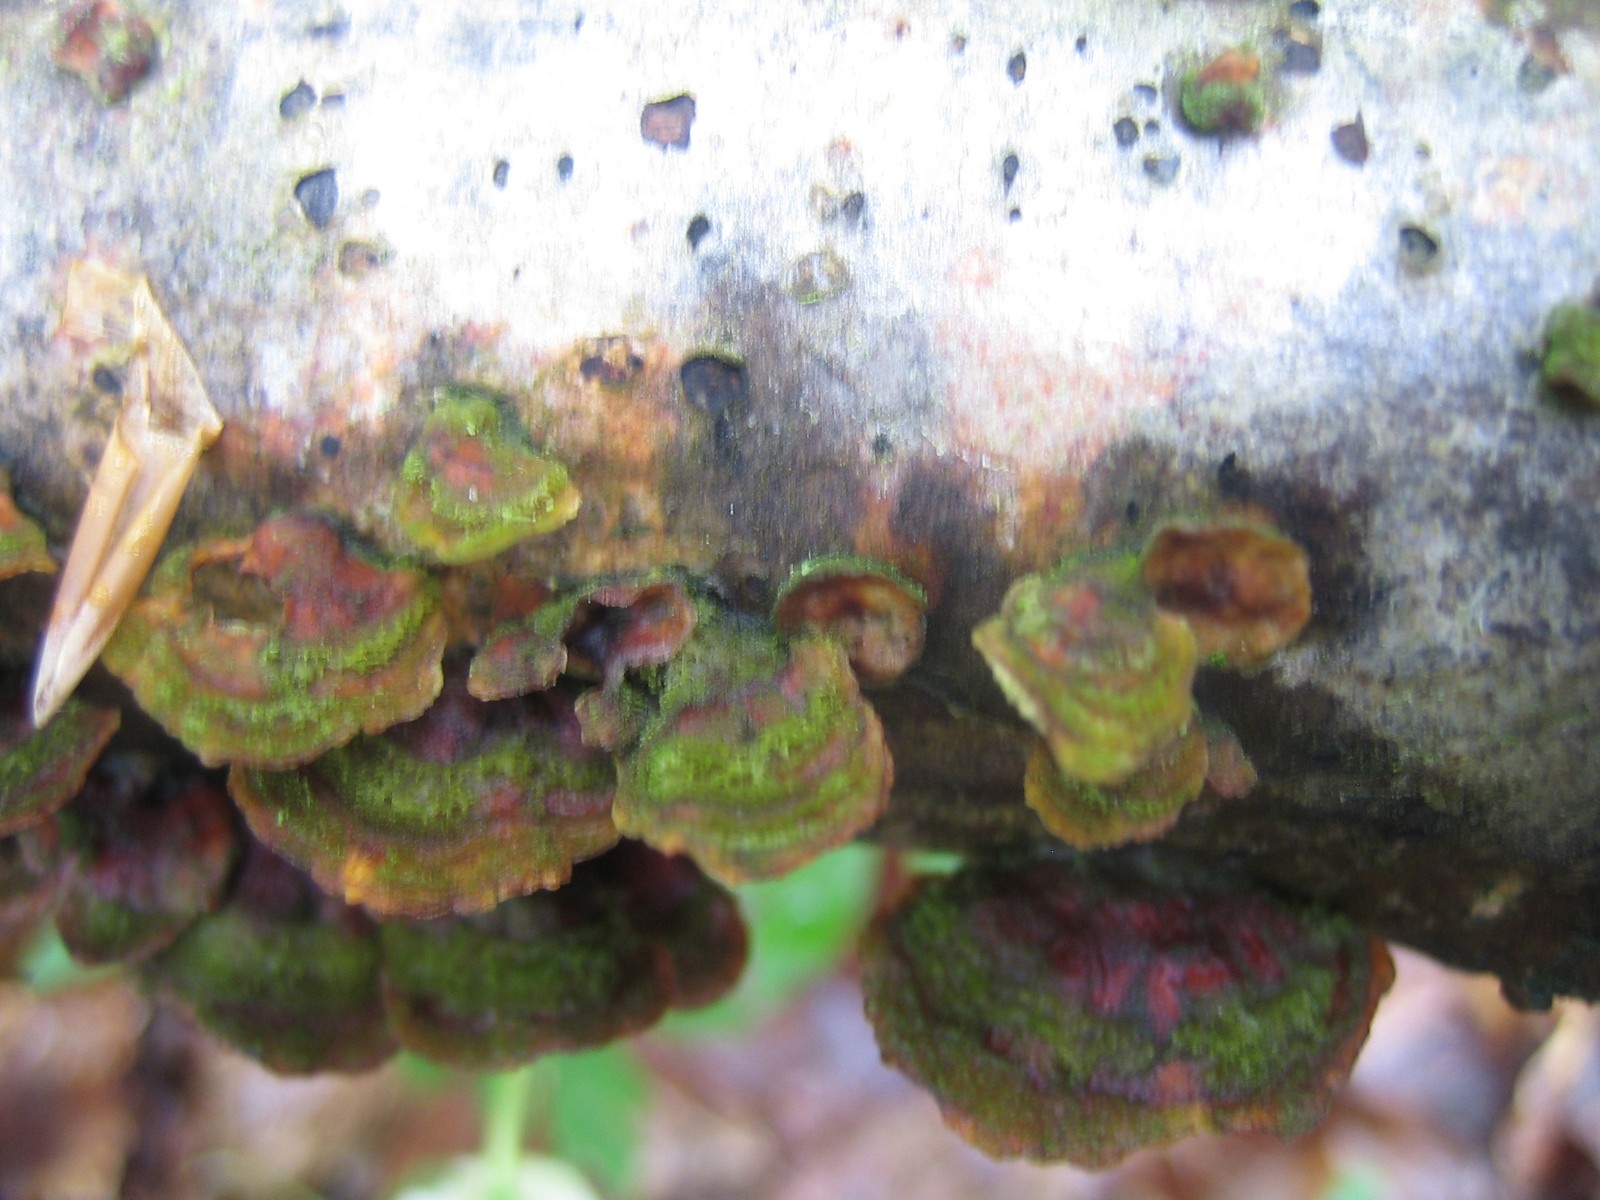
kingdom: Fungi
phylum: Basidiomycota
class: Agaricomycetes
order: Russulales
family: Stereaceae
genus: Stereum
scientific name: Stereum hirsutum
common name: håret lædersvamp
